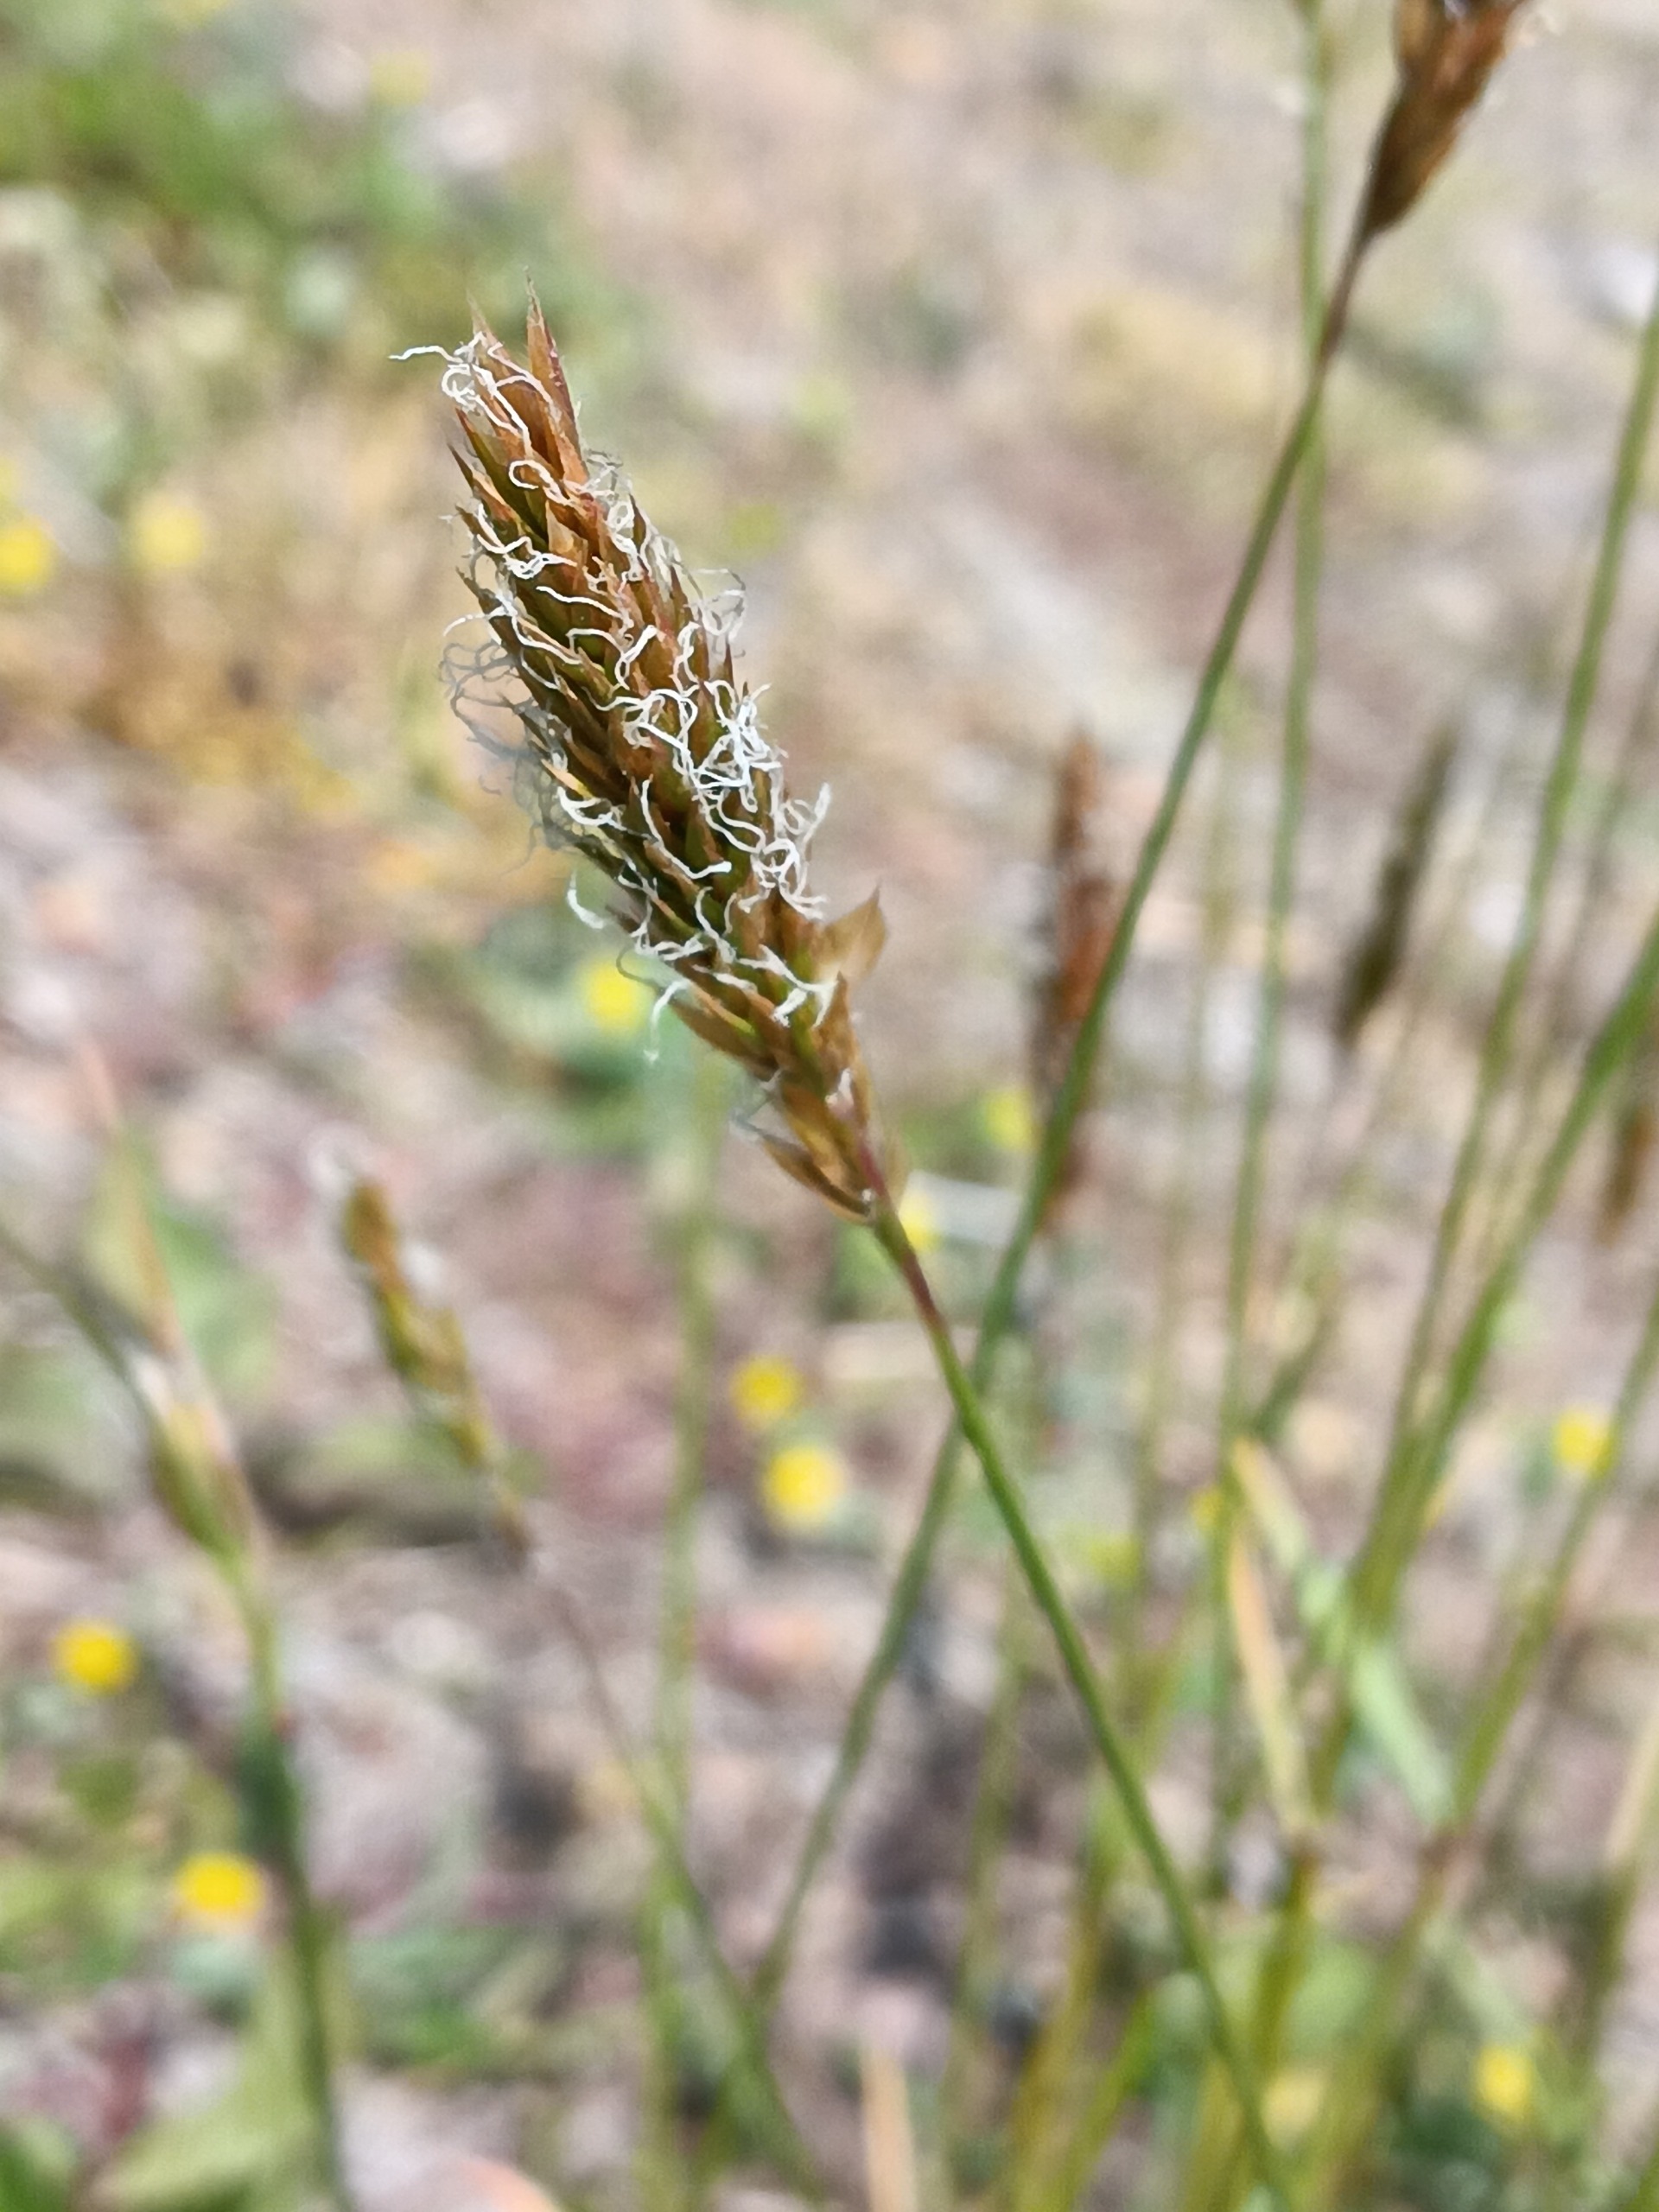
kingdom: Plantae
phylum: Tracheophyta
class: Liliopsida
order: Poales
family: Poaceae
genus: Anthoxanthum
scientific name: Anthoxanthum odoratum
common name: Vellugtende gulaks
